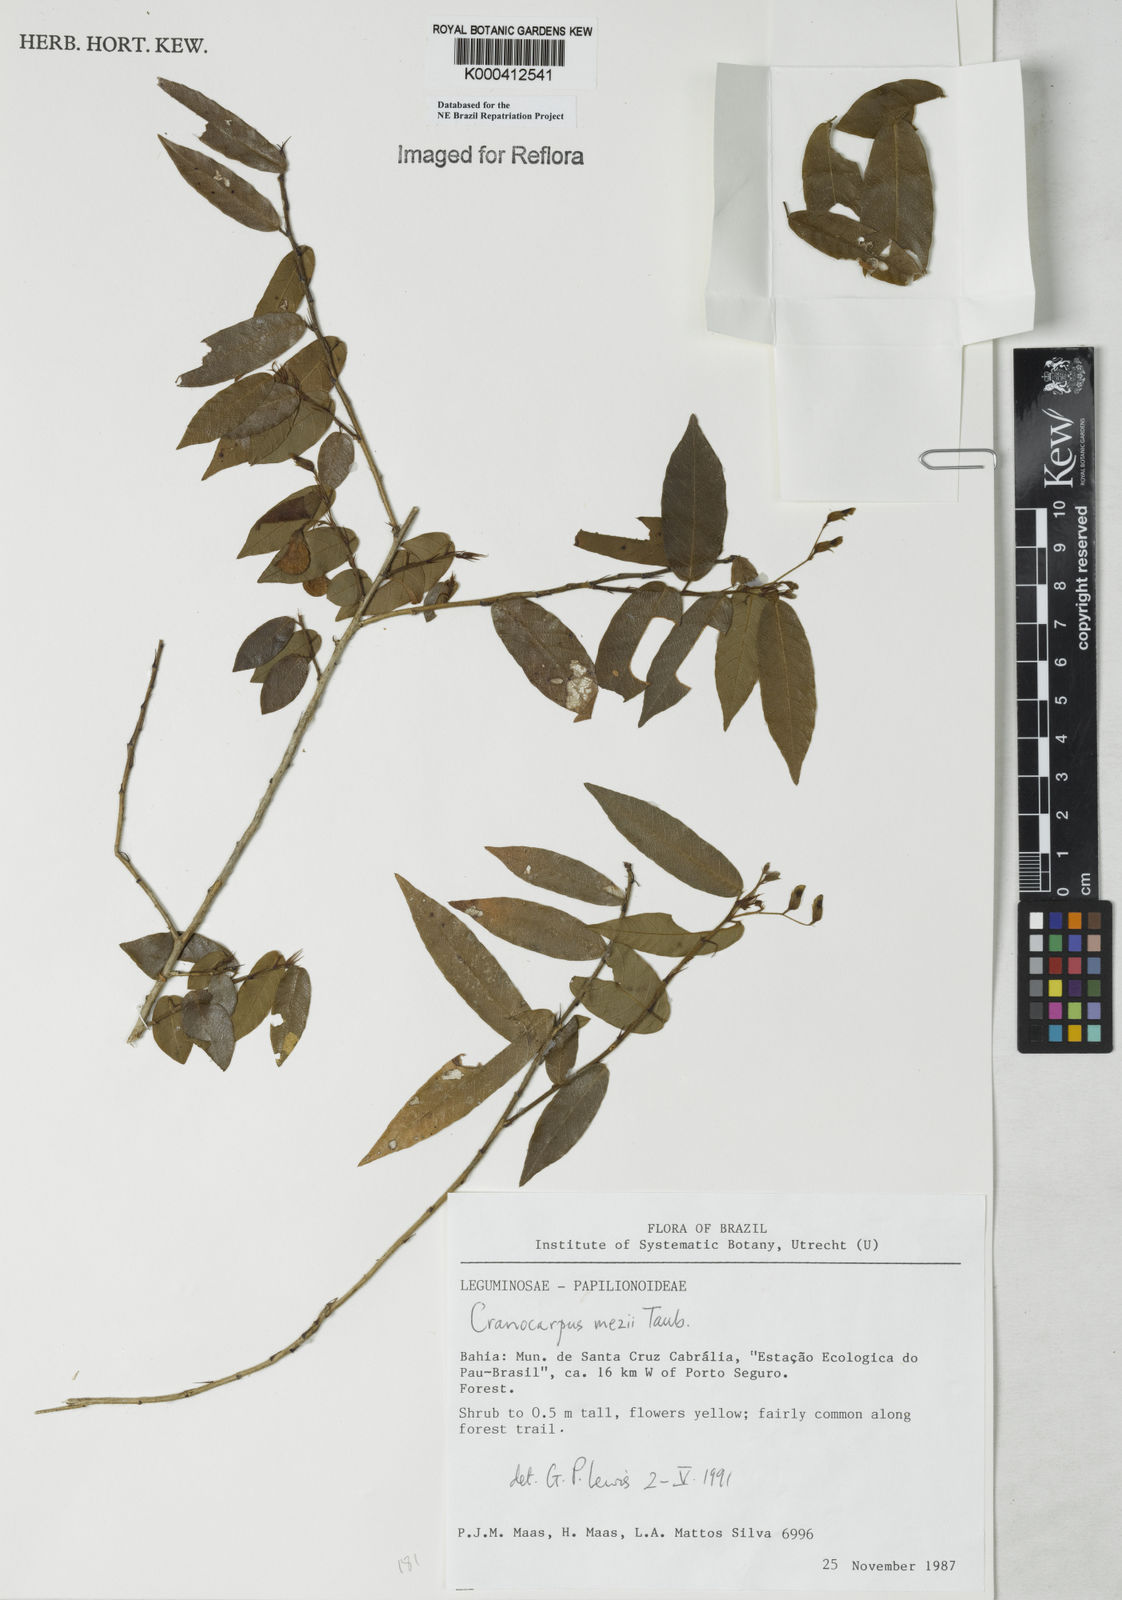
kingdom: Plantae
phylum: Tracheophyta
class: Magnoliopsida
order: Fabales
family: Fabaceae
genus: Cranocarpus
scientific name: Cranocarpus mezii
